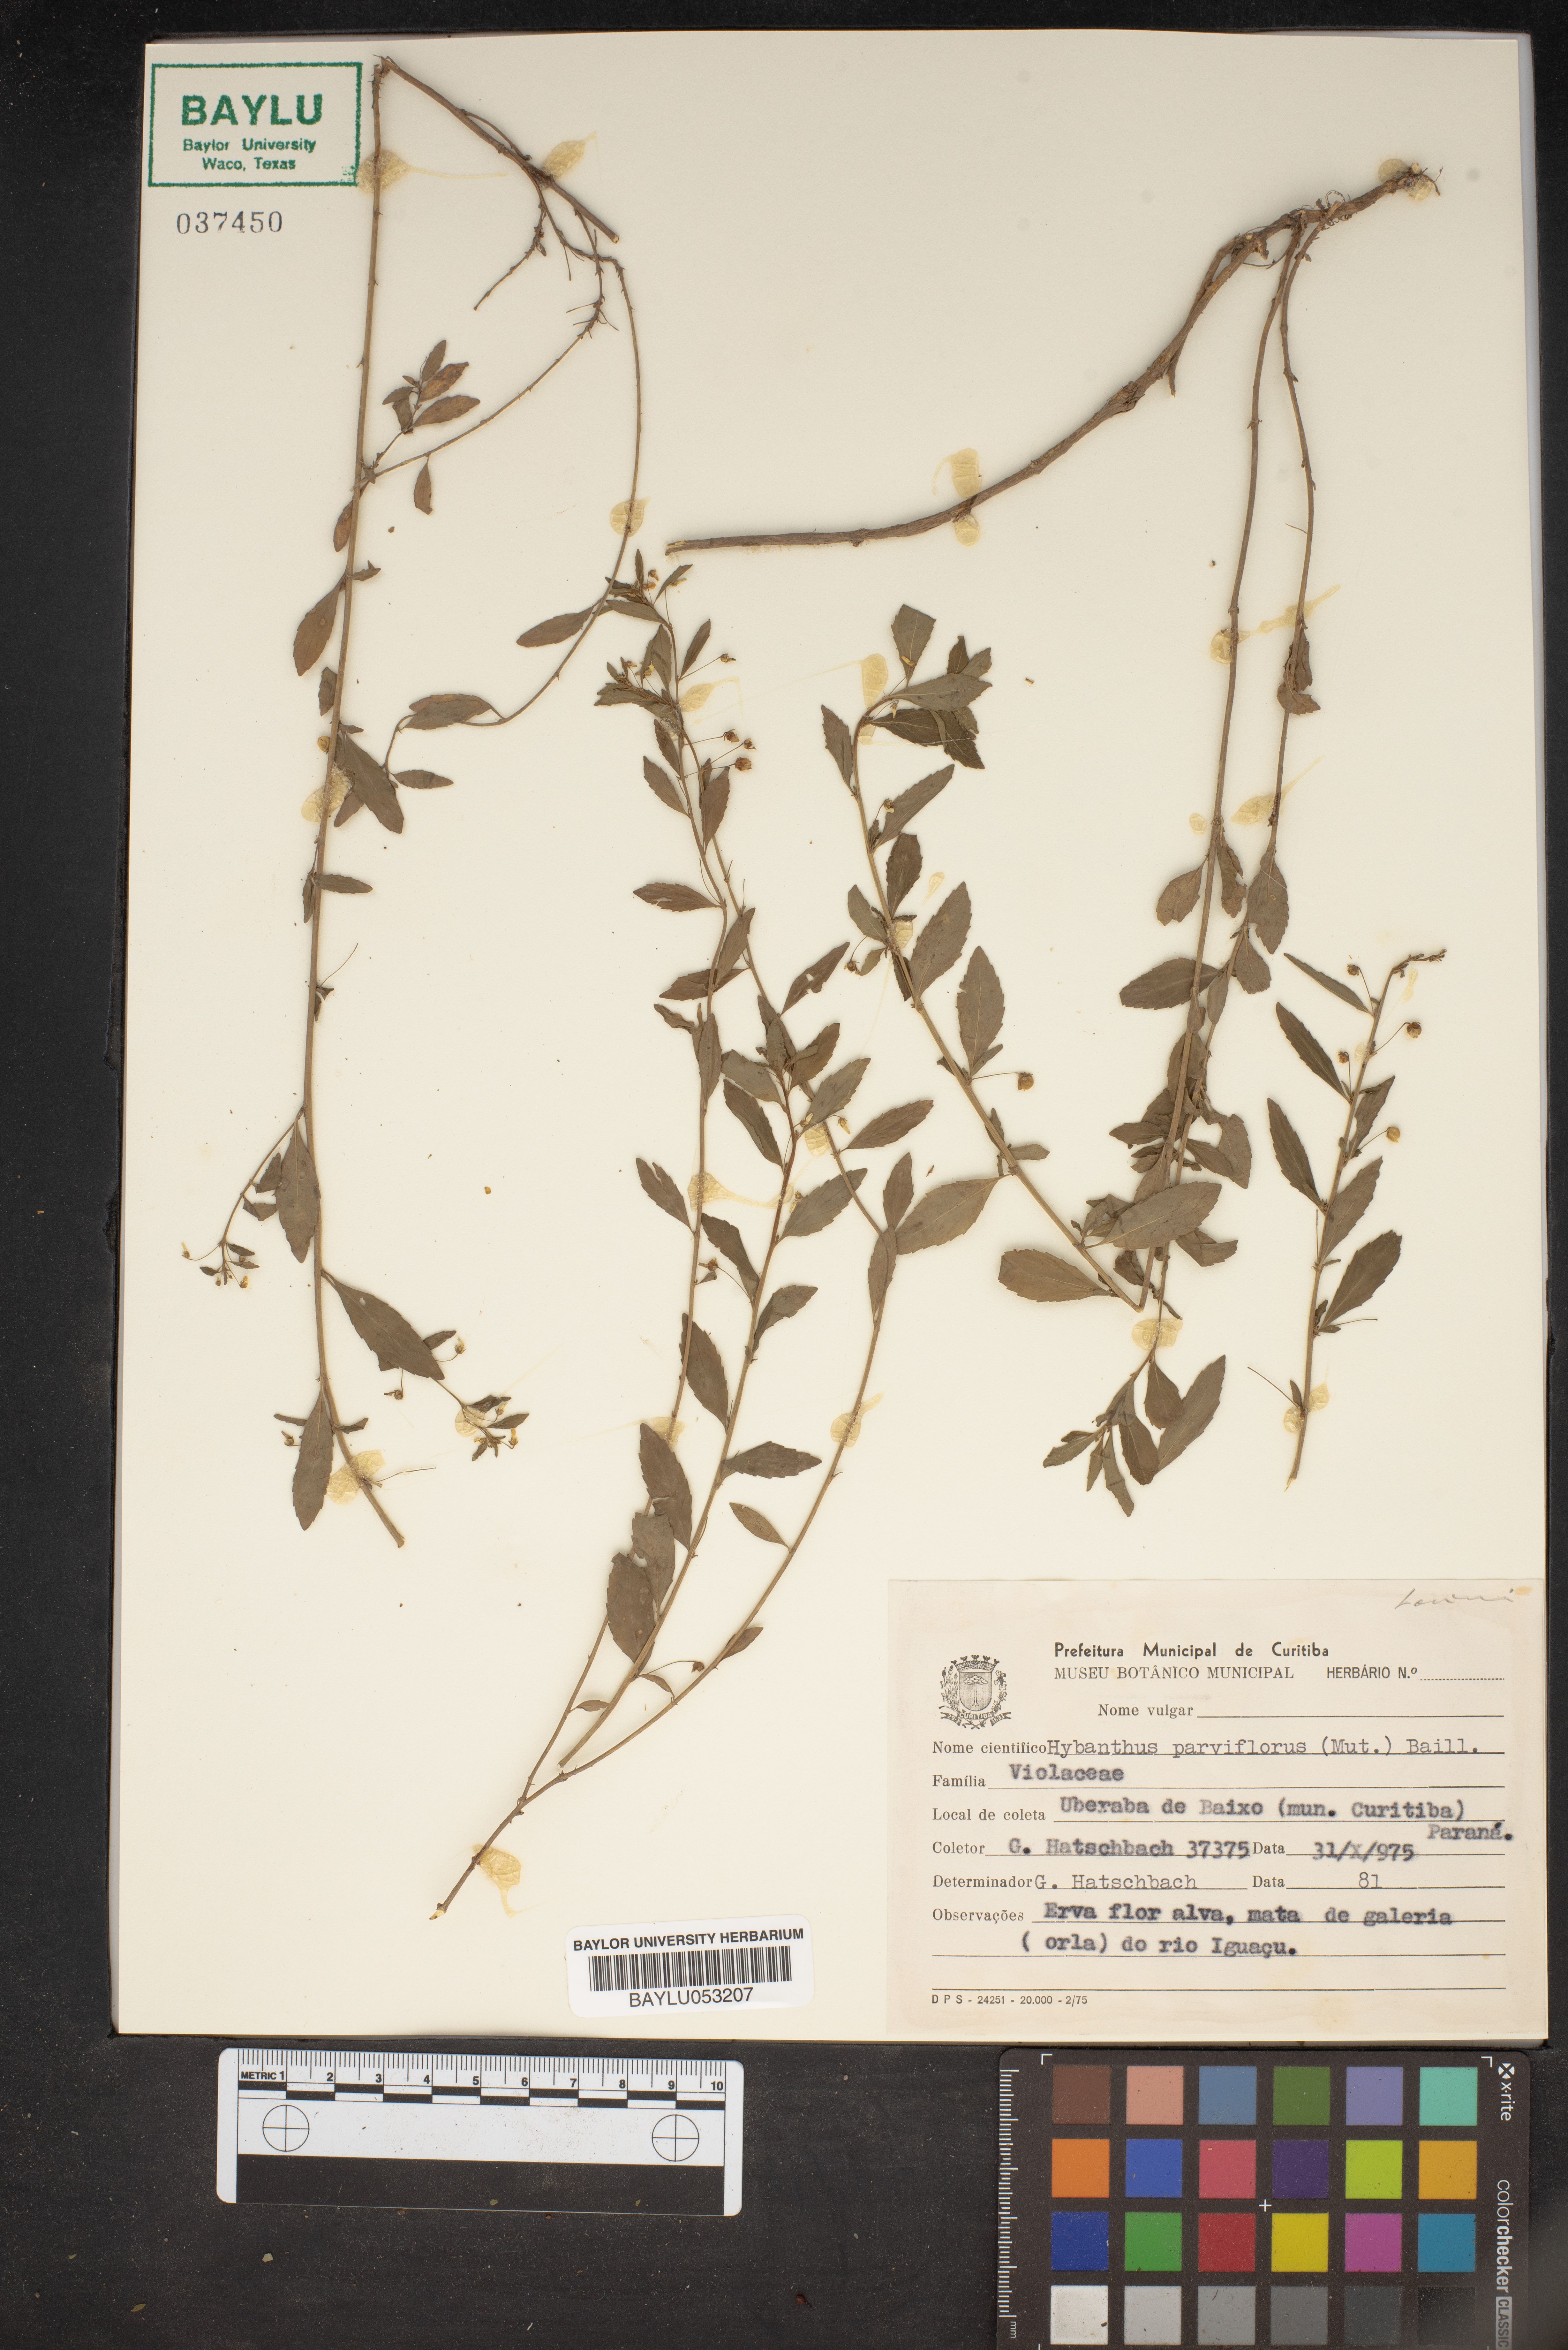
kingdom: Plantae
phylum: Tracheophyta
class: Magnoliopsida
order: Malpighiales
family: Violaceae
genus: Pombalia
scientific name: Pombalia parviflora
